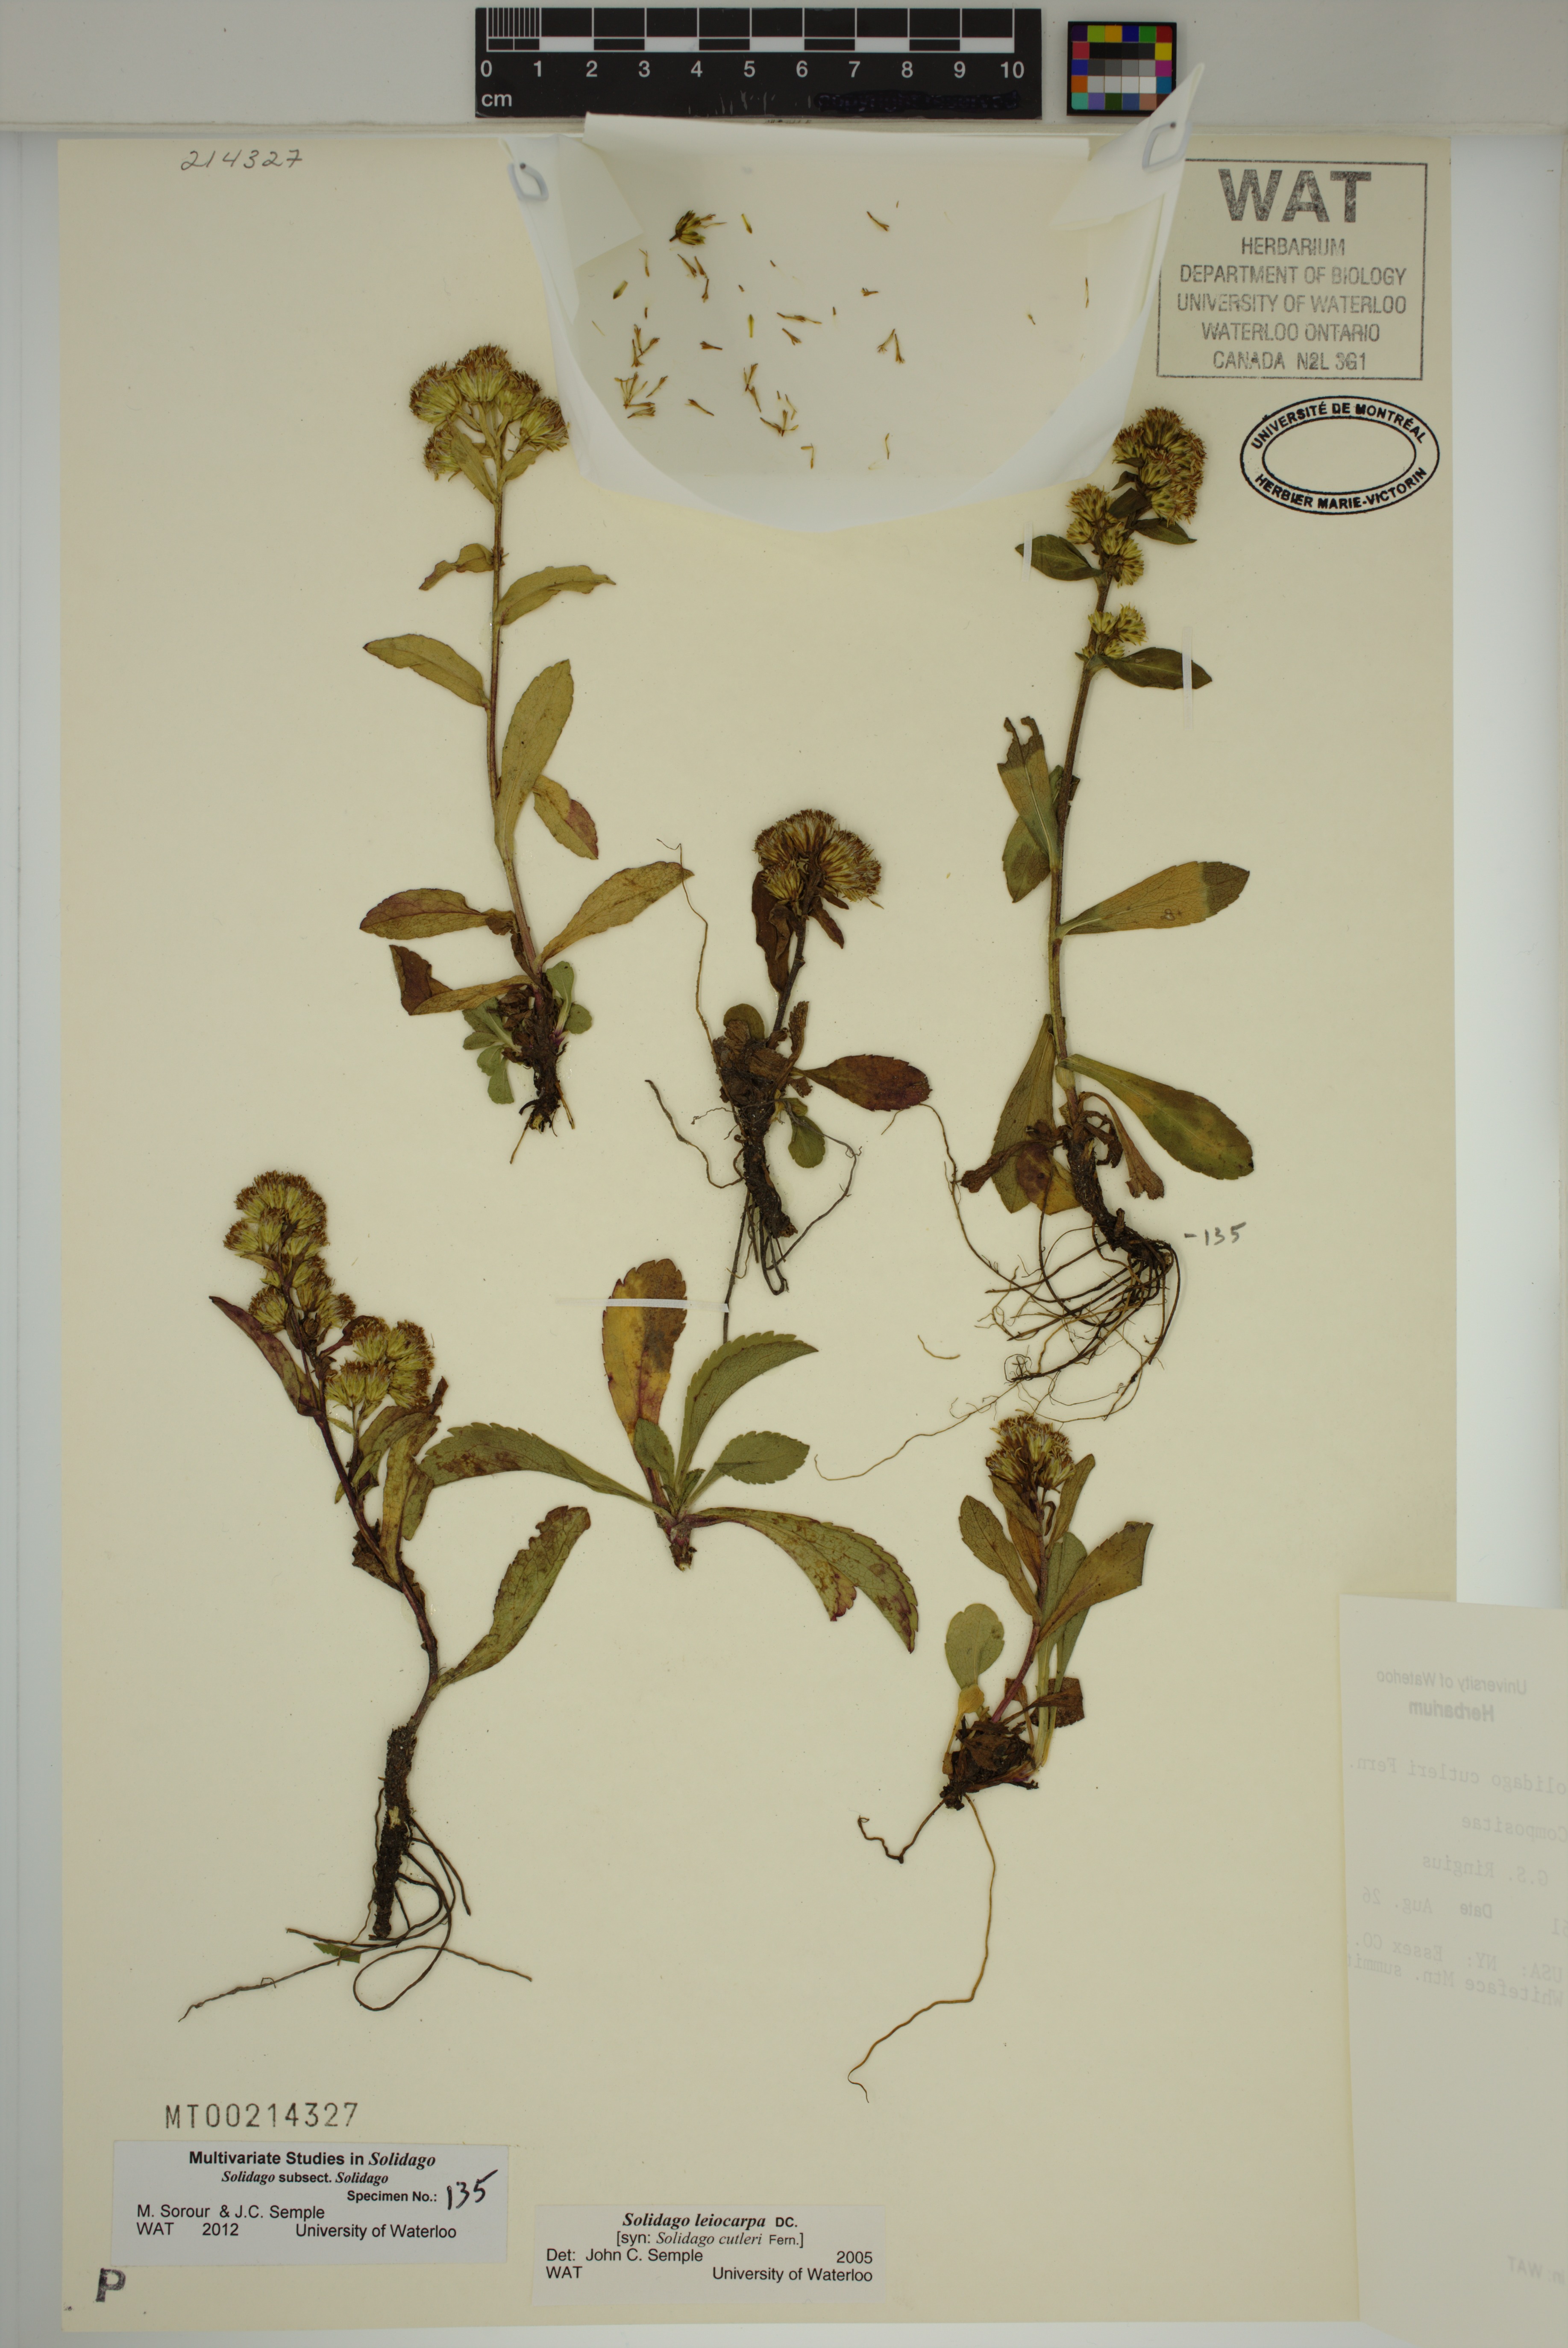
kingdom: Plantae
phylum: Tracheophyta
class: Magnoliopsida
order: Asterales
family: Asteraceae
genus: Solidago
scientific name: Solidago leiocarpa
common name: Cutler's alpine goldenrod
